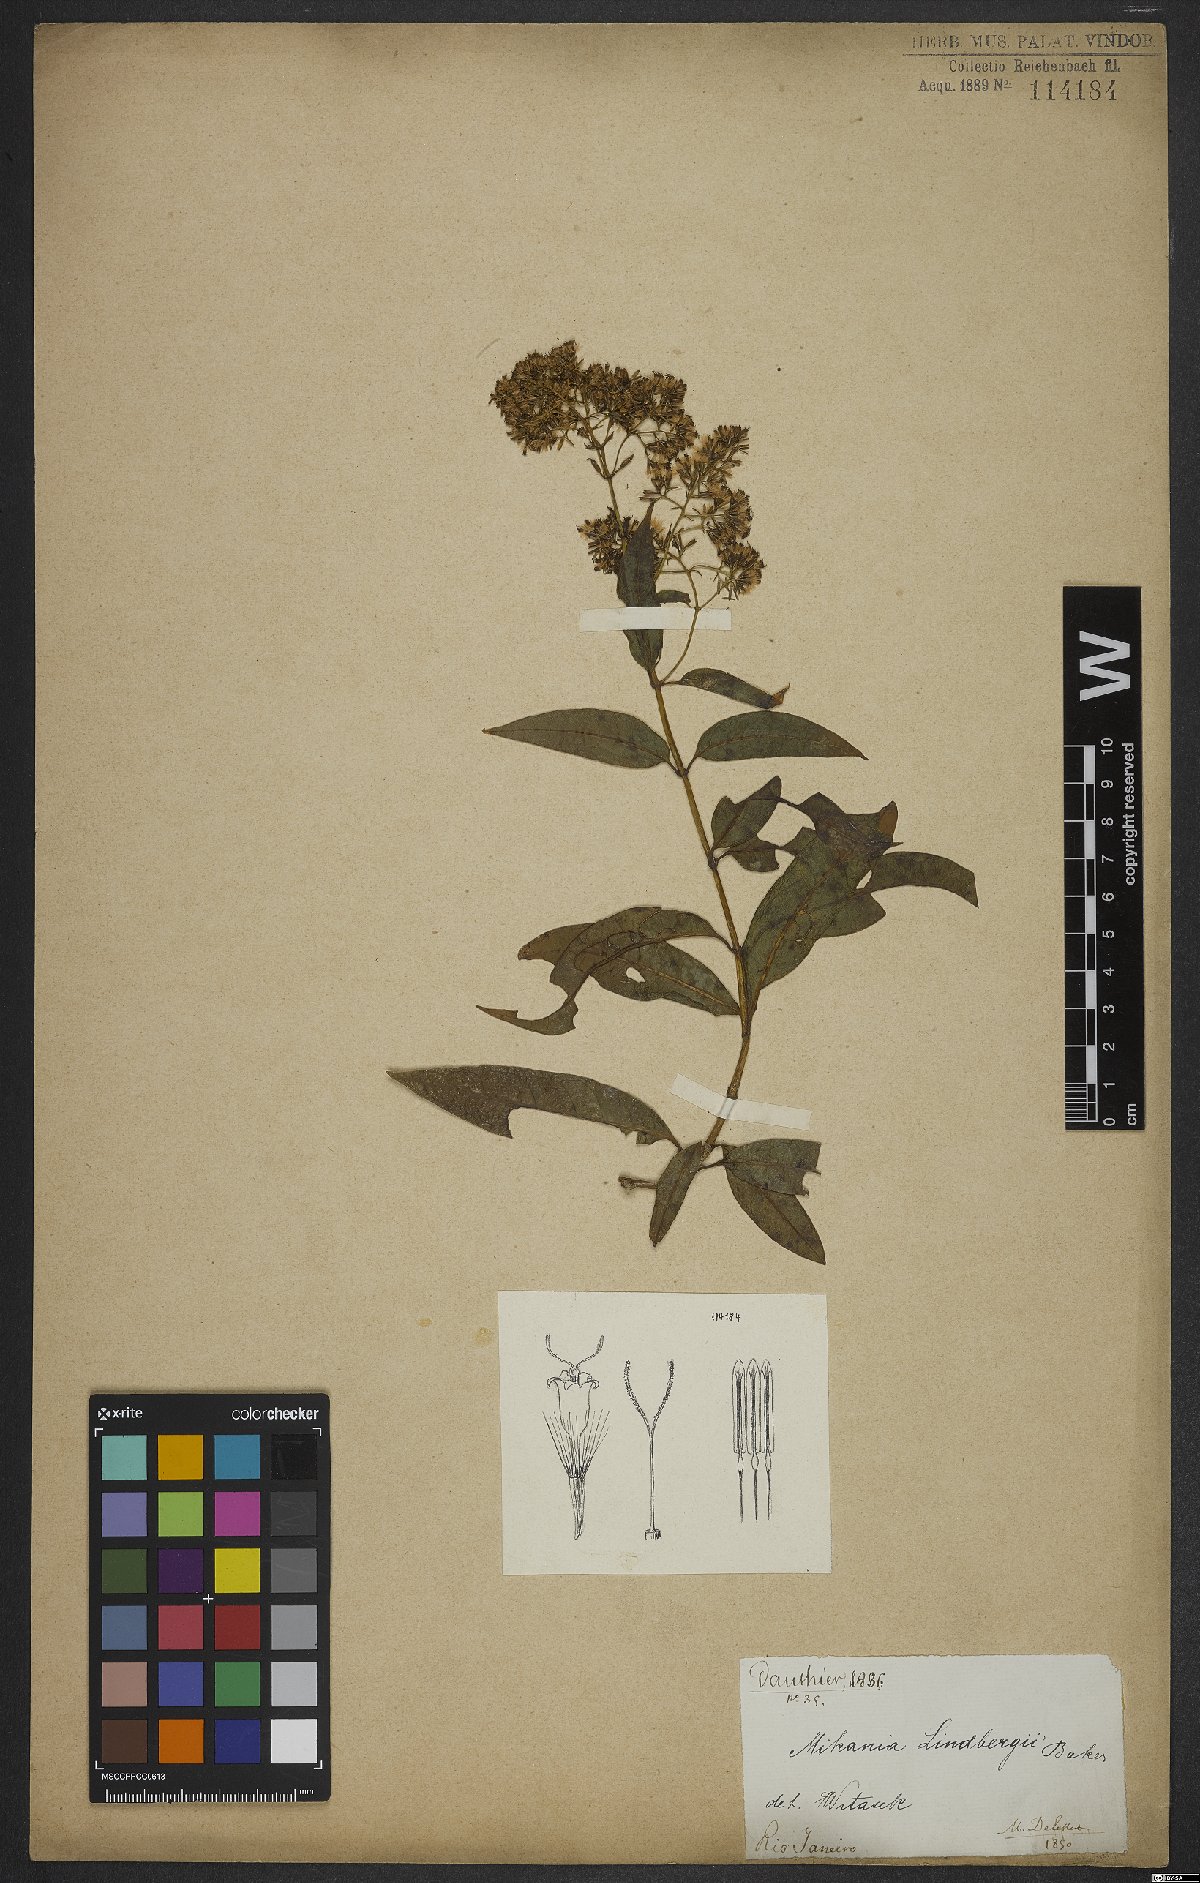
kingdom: Plantae
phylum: Tracheophyta
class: Magnoliopsida
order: Asterales
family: Asteraceae
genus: Mikania
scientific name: Mikania lindbergii
